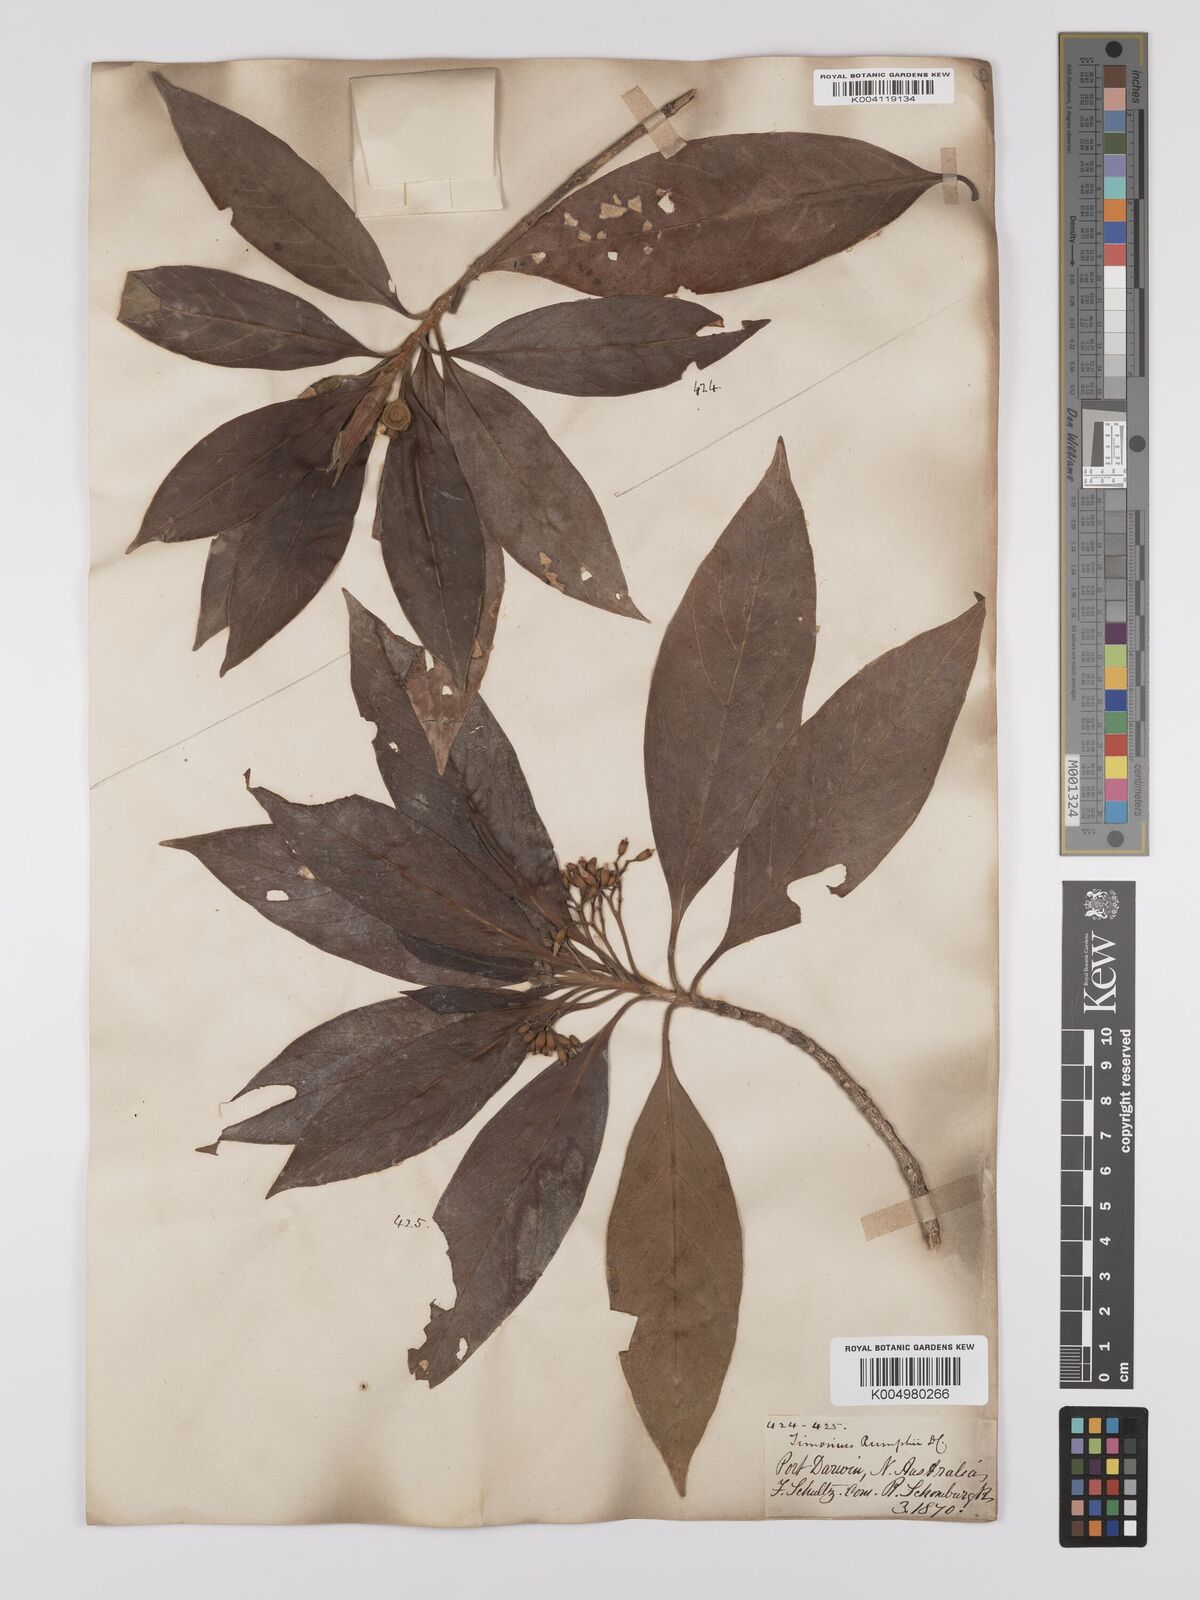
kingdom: Plantae
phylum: Tracheophyta
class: Magnoliopsida
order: Gentianales
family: Rubiaceae
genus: Timonius
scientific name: Timonius timon
